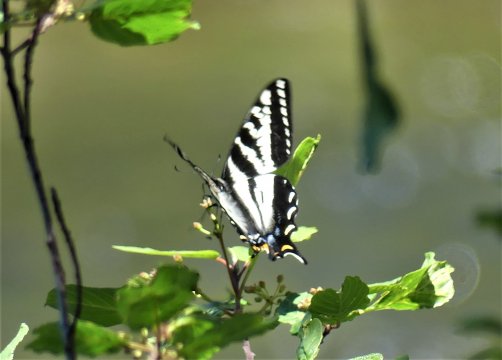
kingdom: Animalia
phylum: Arthropoda
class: Insecta
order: Lepidoptera
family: Papilionidae
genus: Pterourus
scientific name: Pterourus eurymedon
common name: Pale Swallowtail
